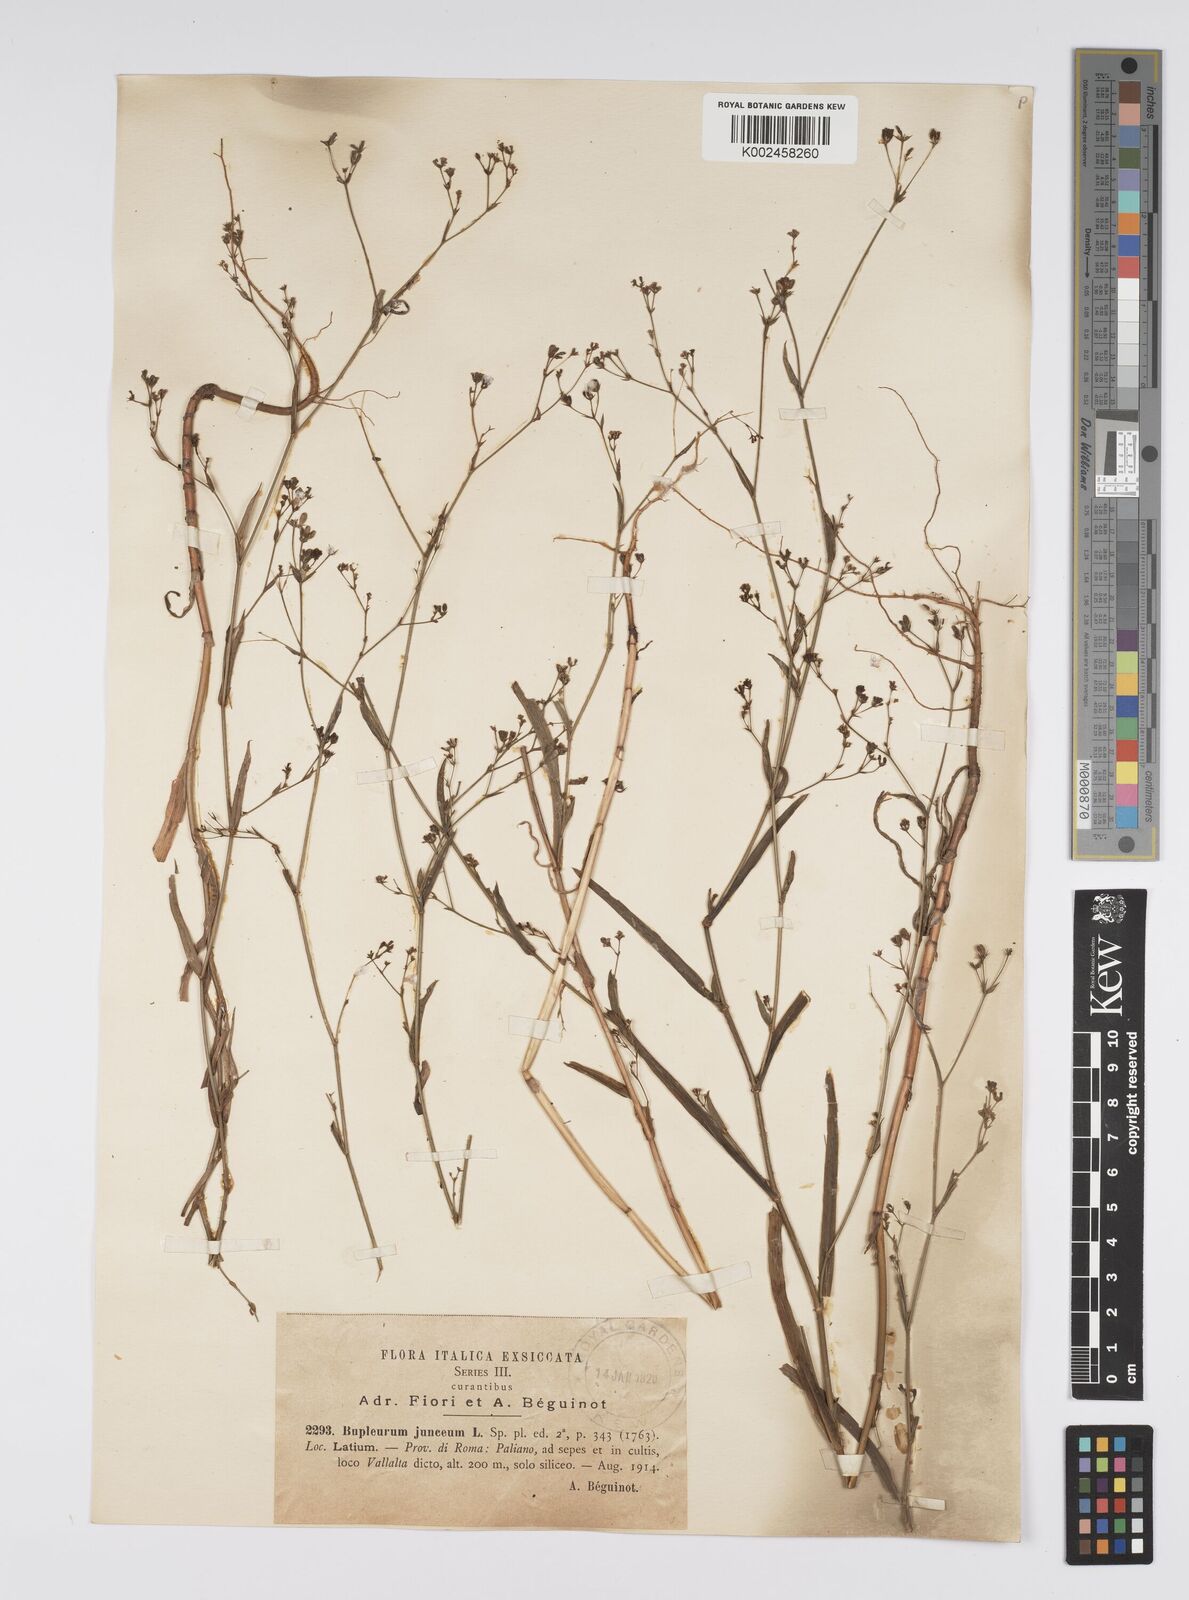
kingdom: Plantae
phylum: Tracheophyta
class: Magnoliopsida
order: Apiales
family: Apiaceae
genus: Bupleurum
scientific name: Bupleurum praealtum
